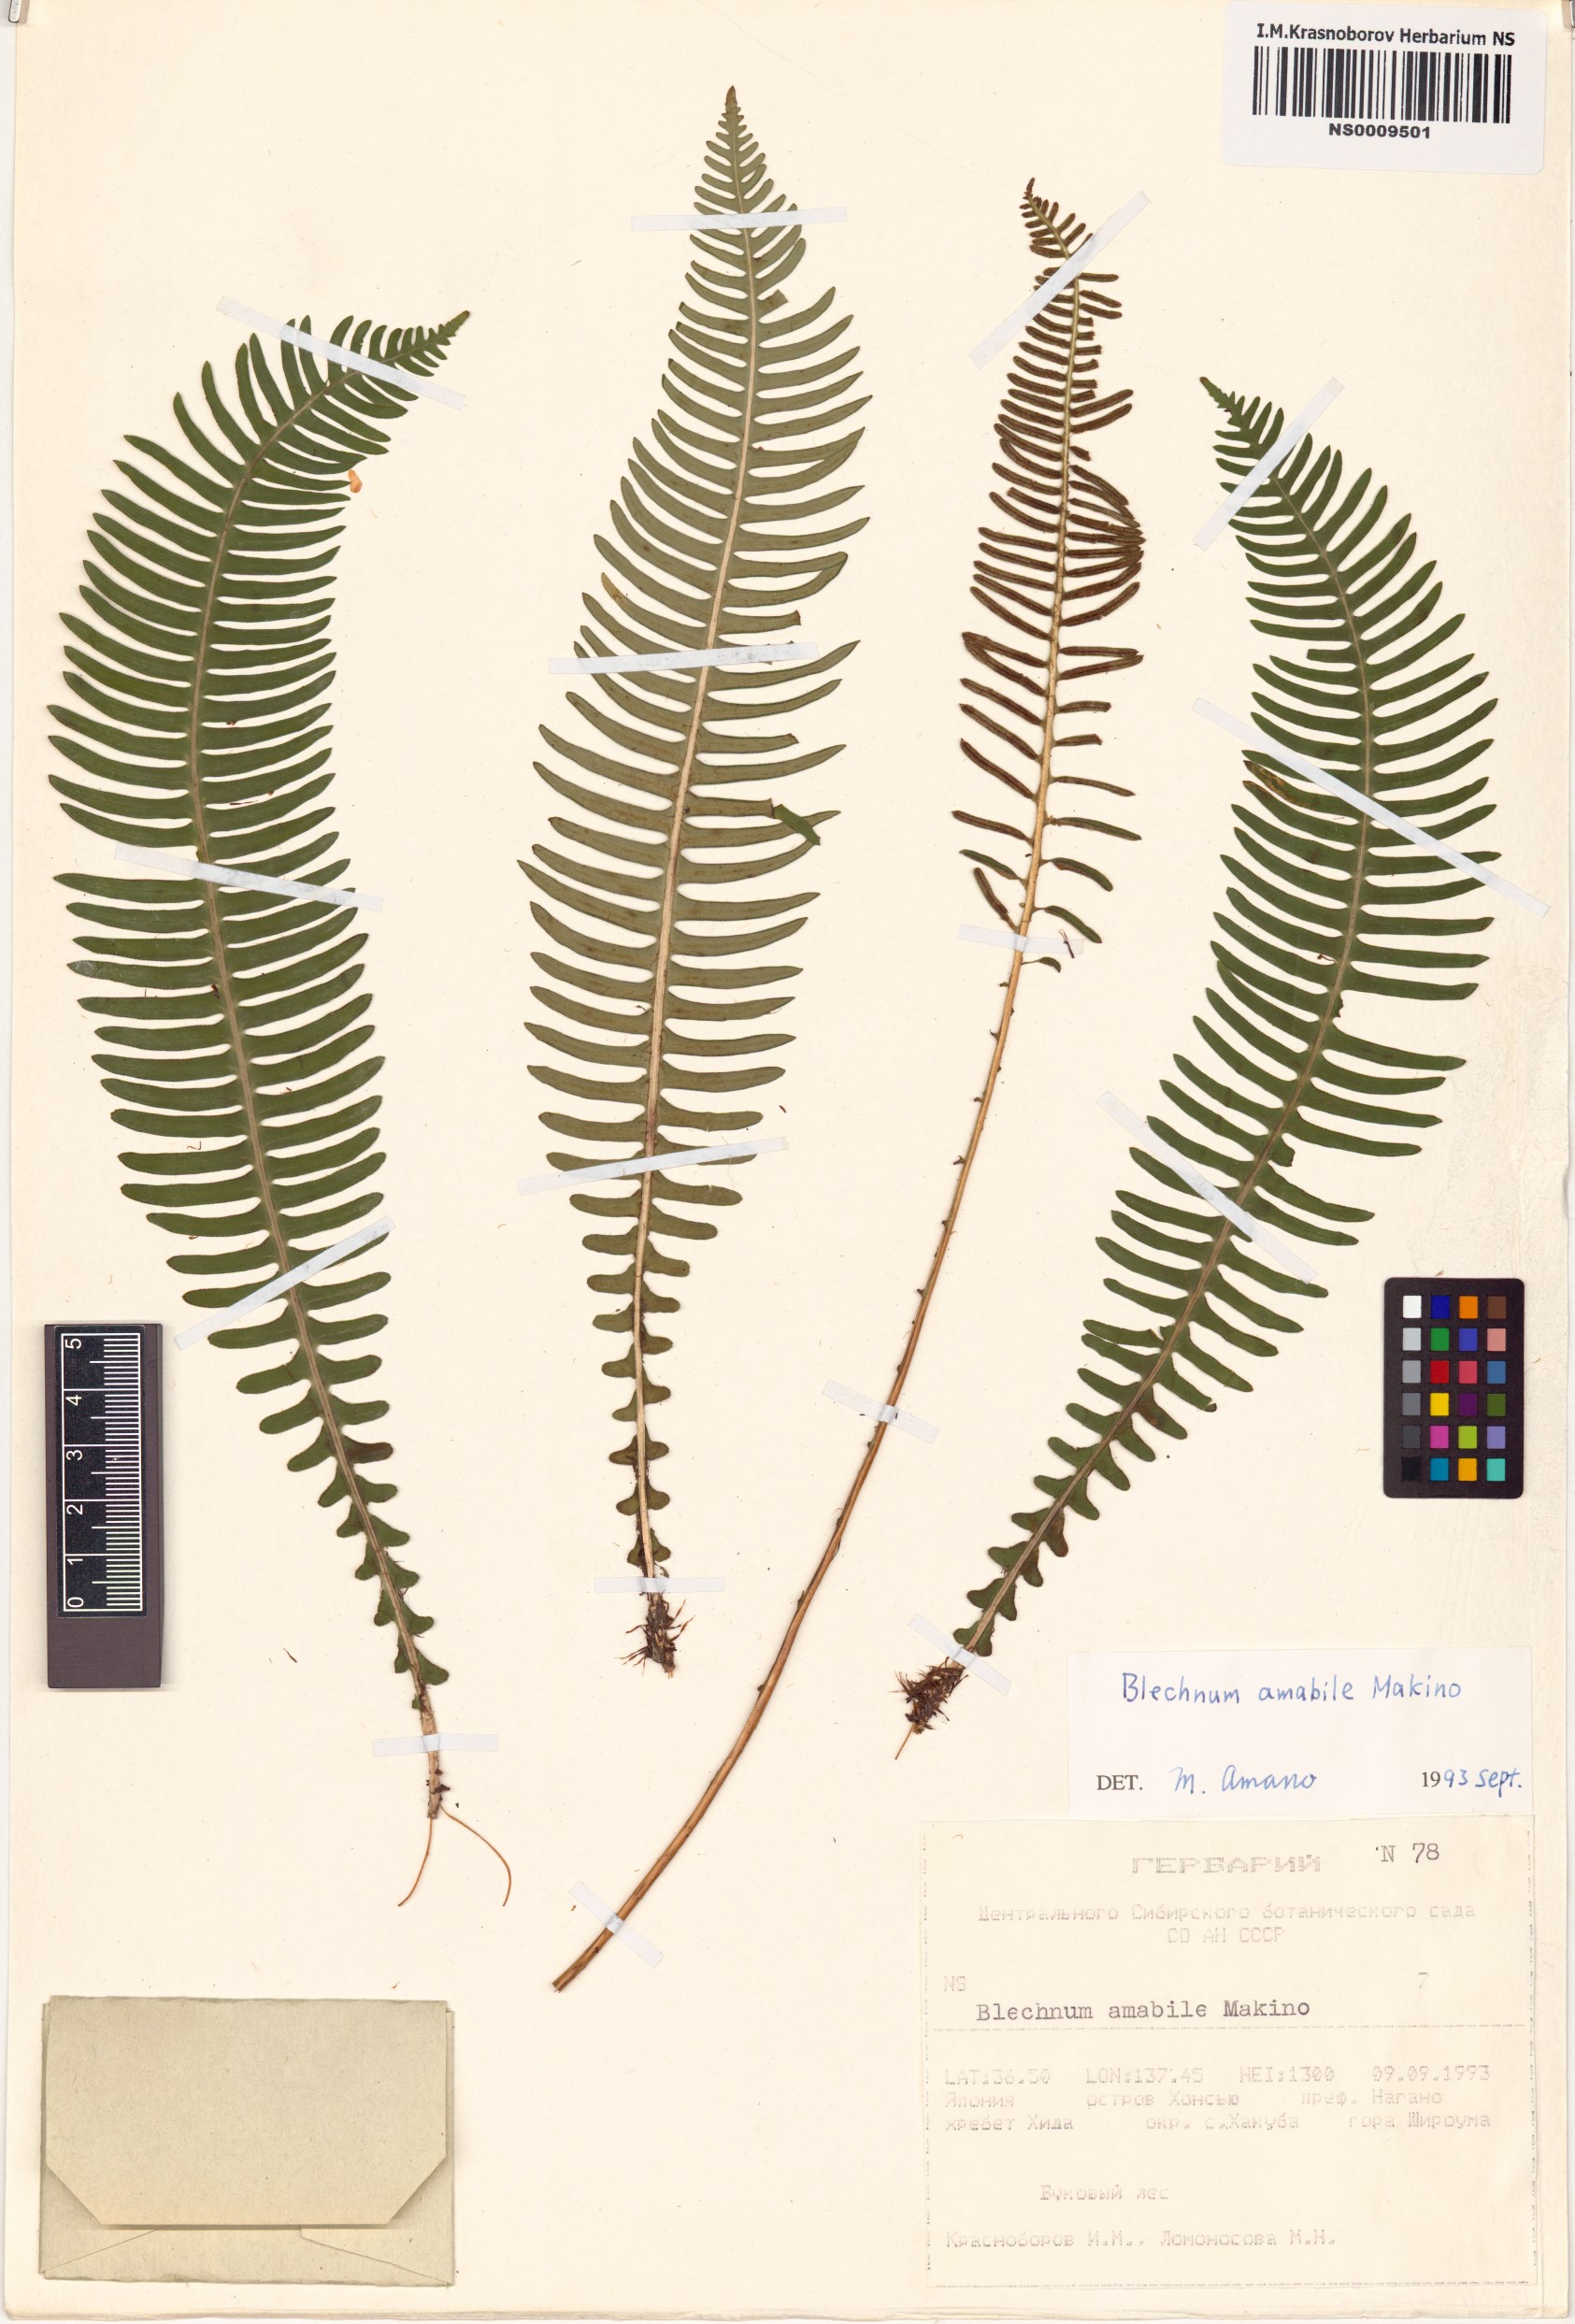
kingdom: Plantae
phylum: Tracheophyta
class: Polypodiopsida
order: Polypodiales
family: Blechnaceae
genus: Spicantopsis
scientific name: Spicantopsis amabilis
